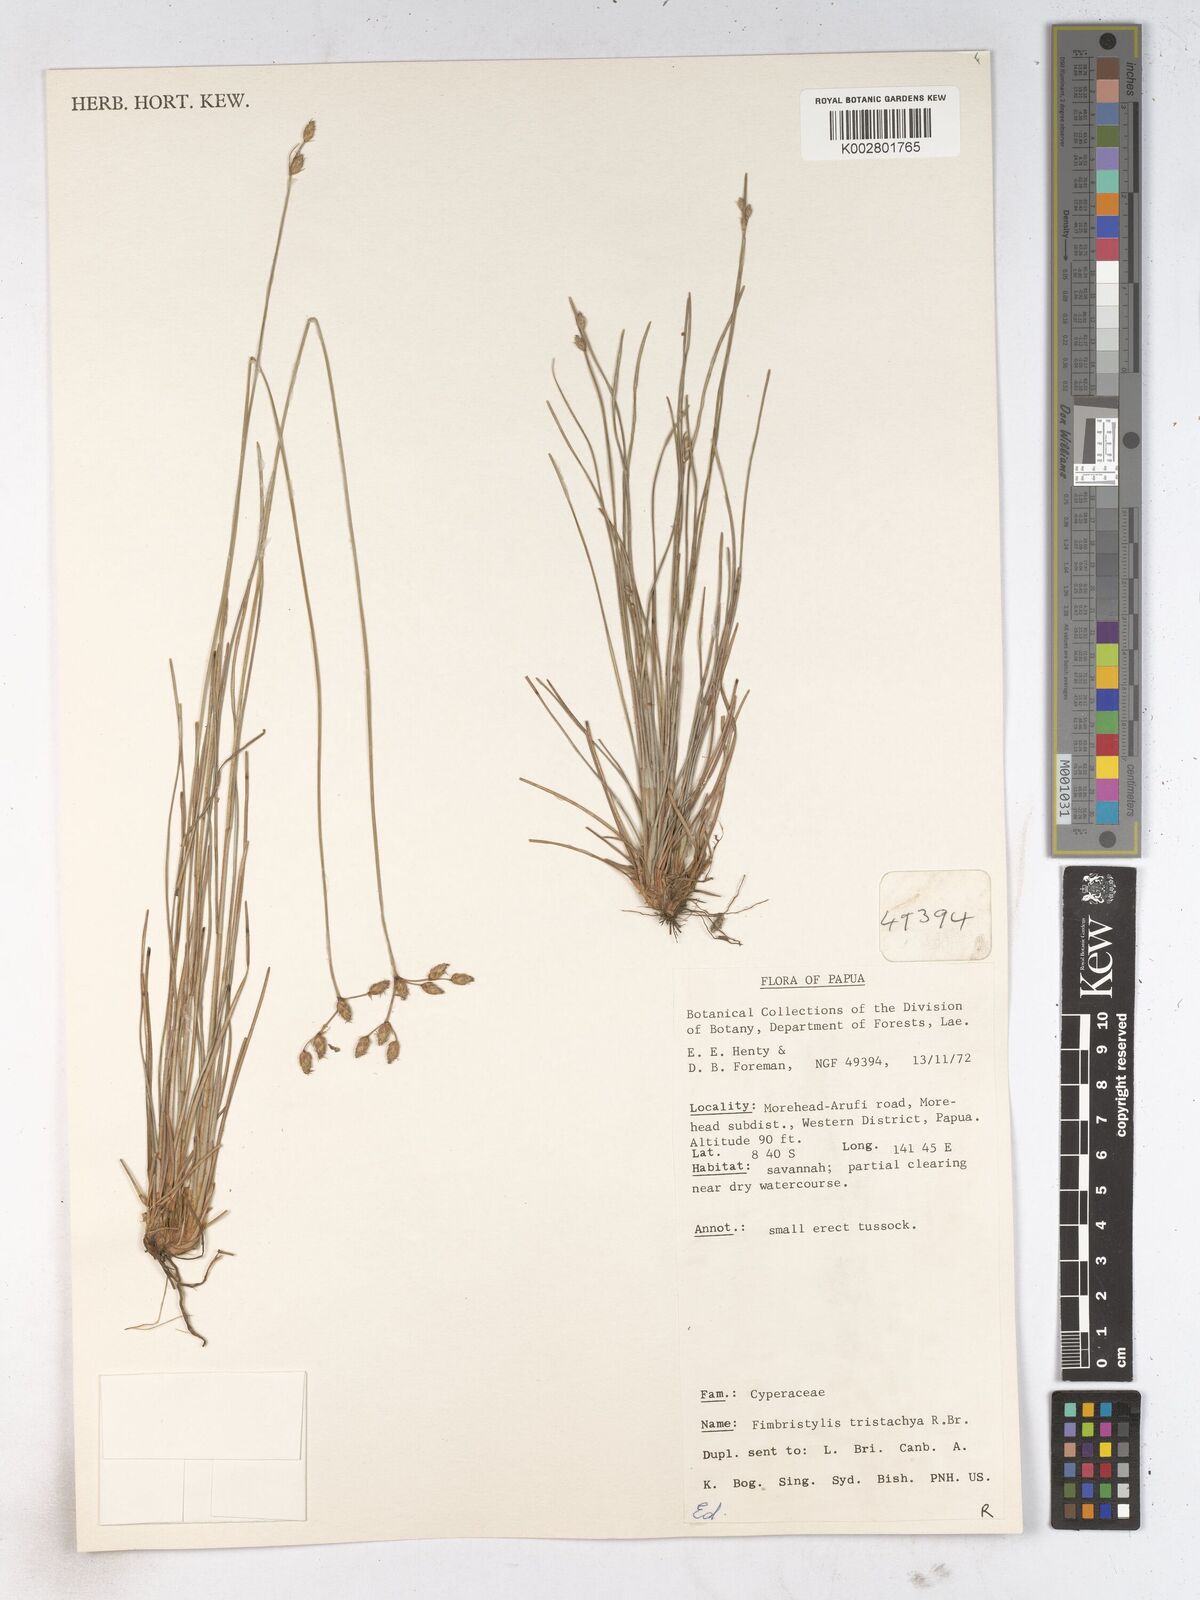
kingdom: Plantae
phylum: Tracheophyta
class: Liliopsida
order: Poales
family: Cyperaceae
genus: Fimbristylis
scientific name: Fimbristylis tristachya
